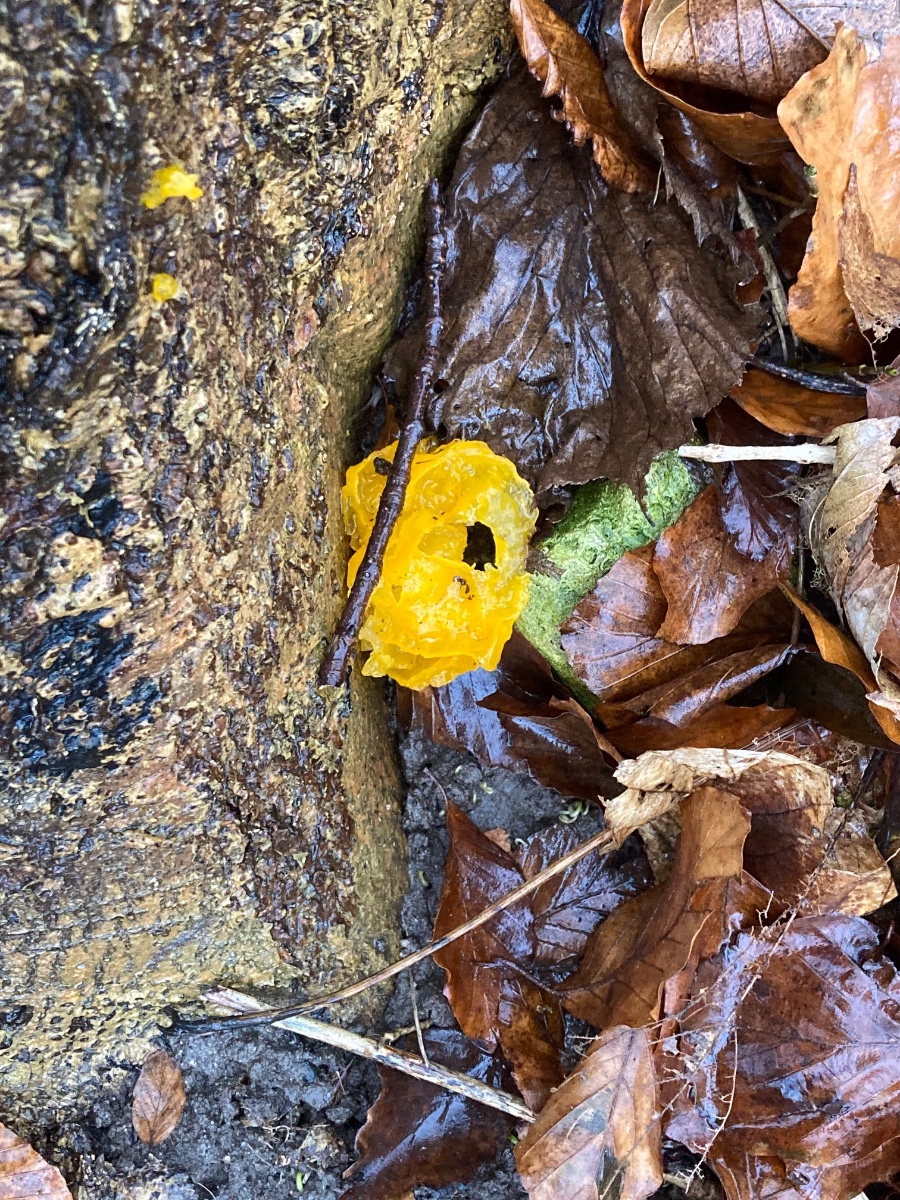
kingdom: Fungi
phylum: Basidiomycota
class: Tremellomycetes
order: Tremellales
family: Tremellaceae
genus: Tremella
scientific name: Tremella mesenterica
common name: gul bævresvamp
